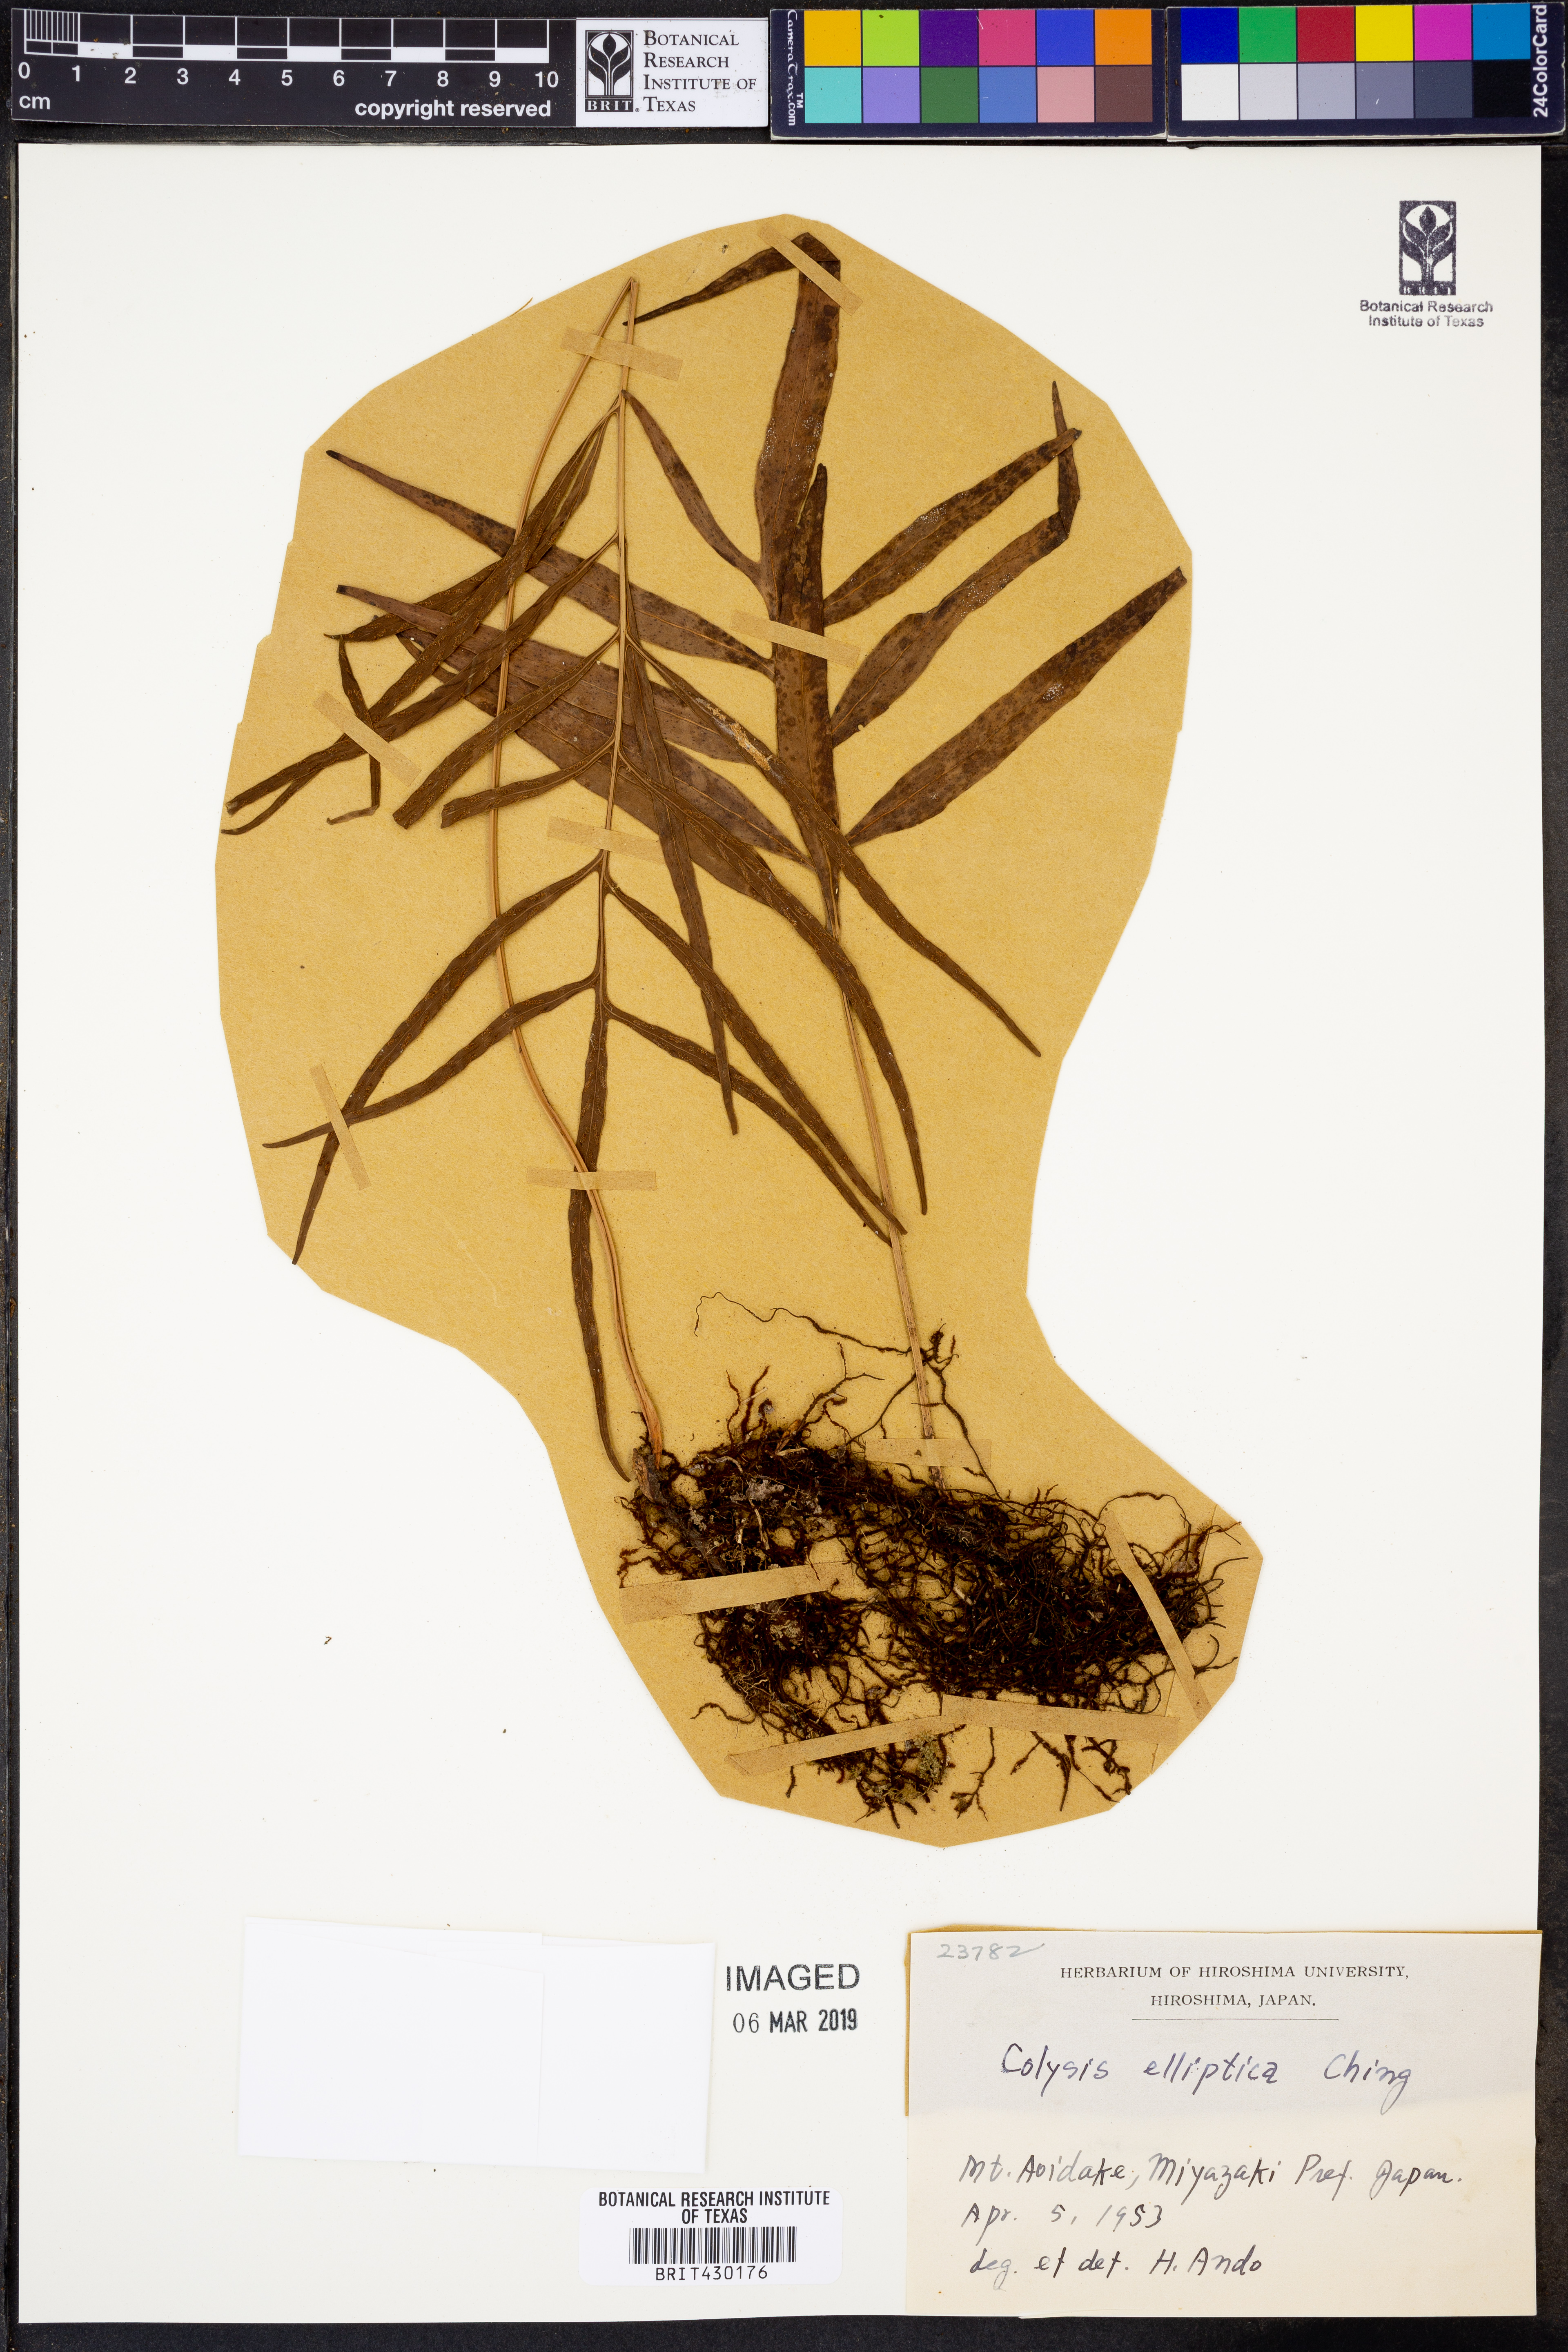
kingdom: Plantae
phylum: Tracheophyta
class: Polypodiopsida
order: Polypodiales
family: Polypodiaceae
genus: Leptochilus
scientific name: Leptochilus ellipticus
